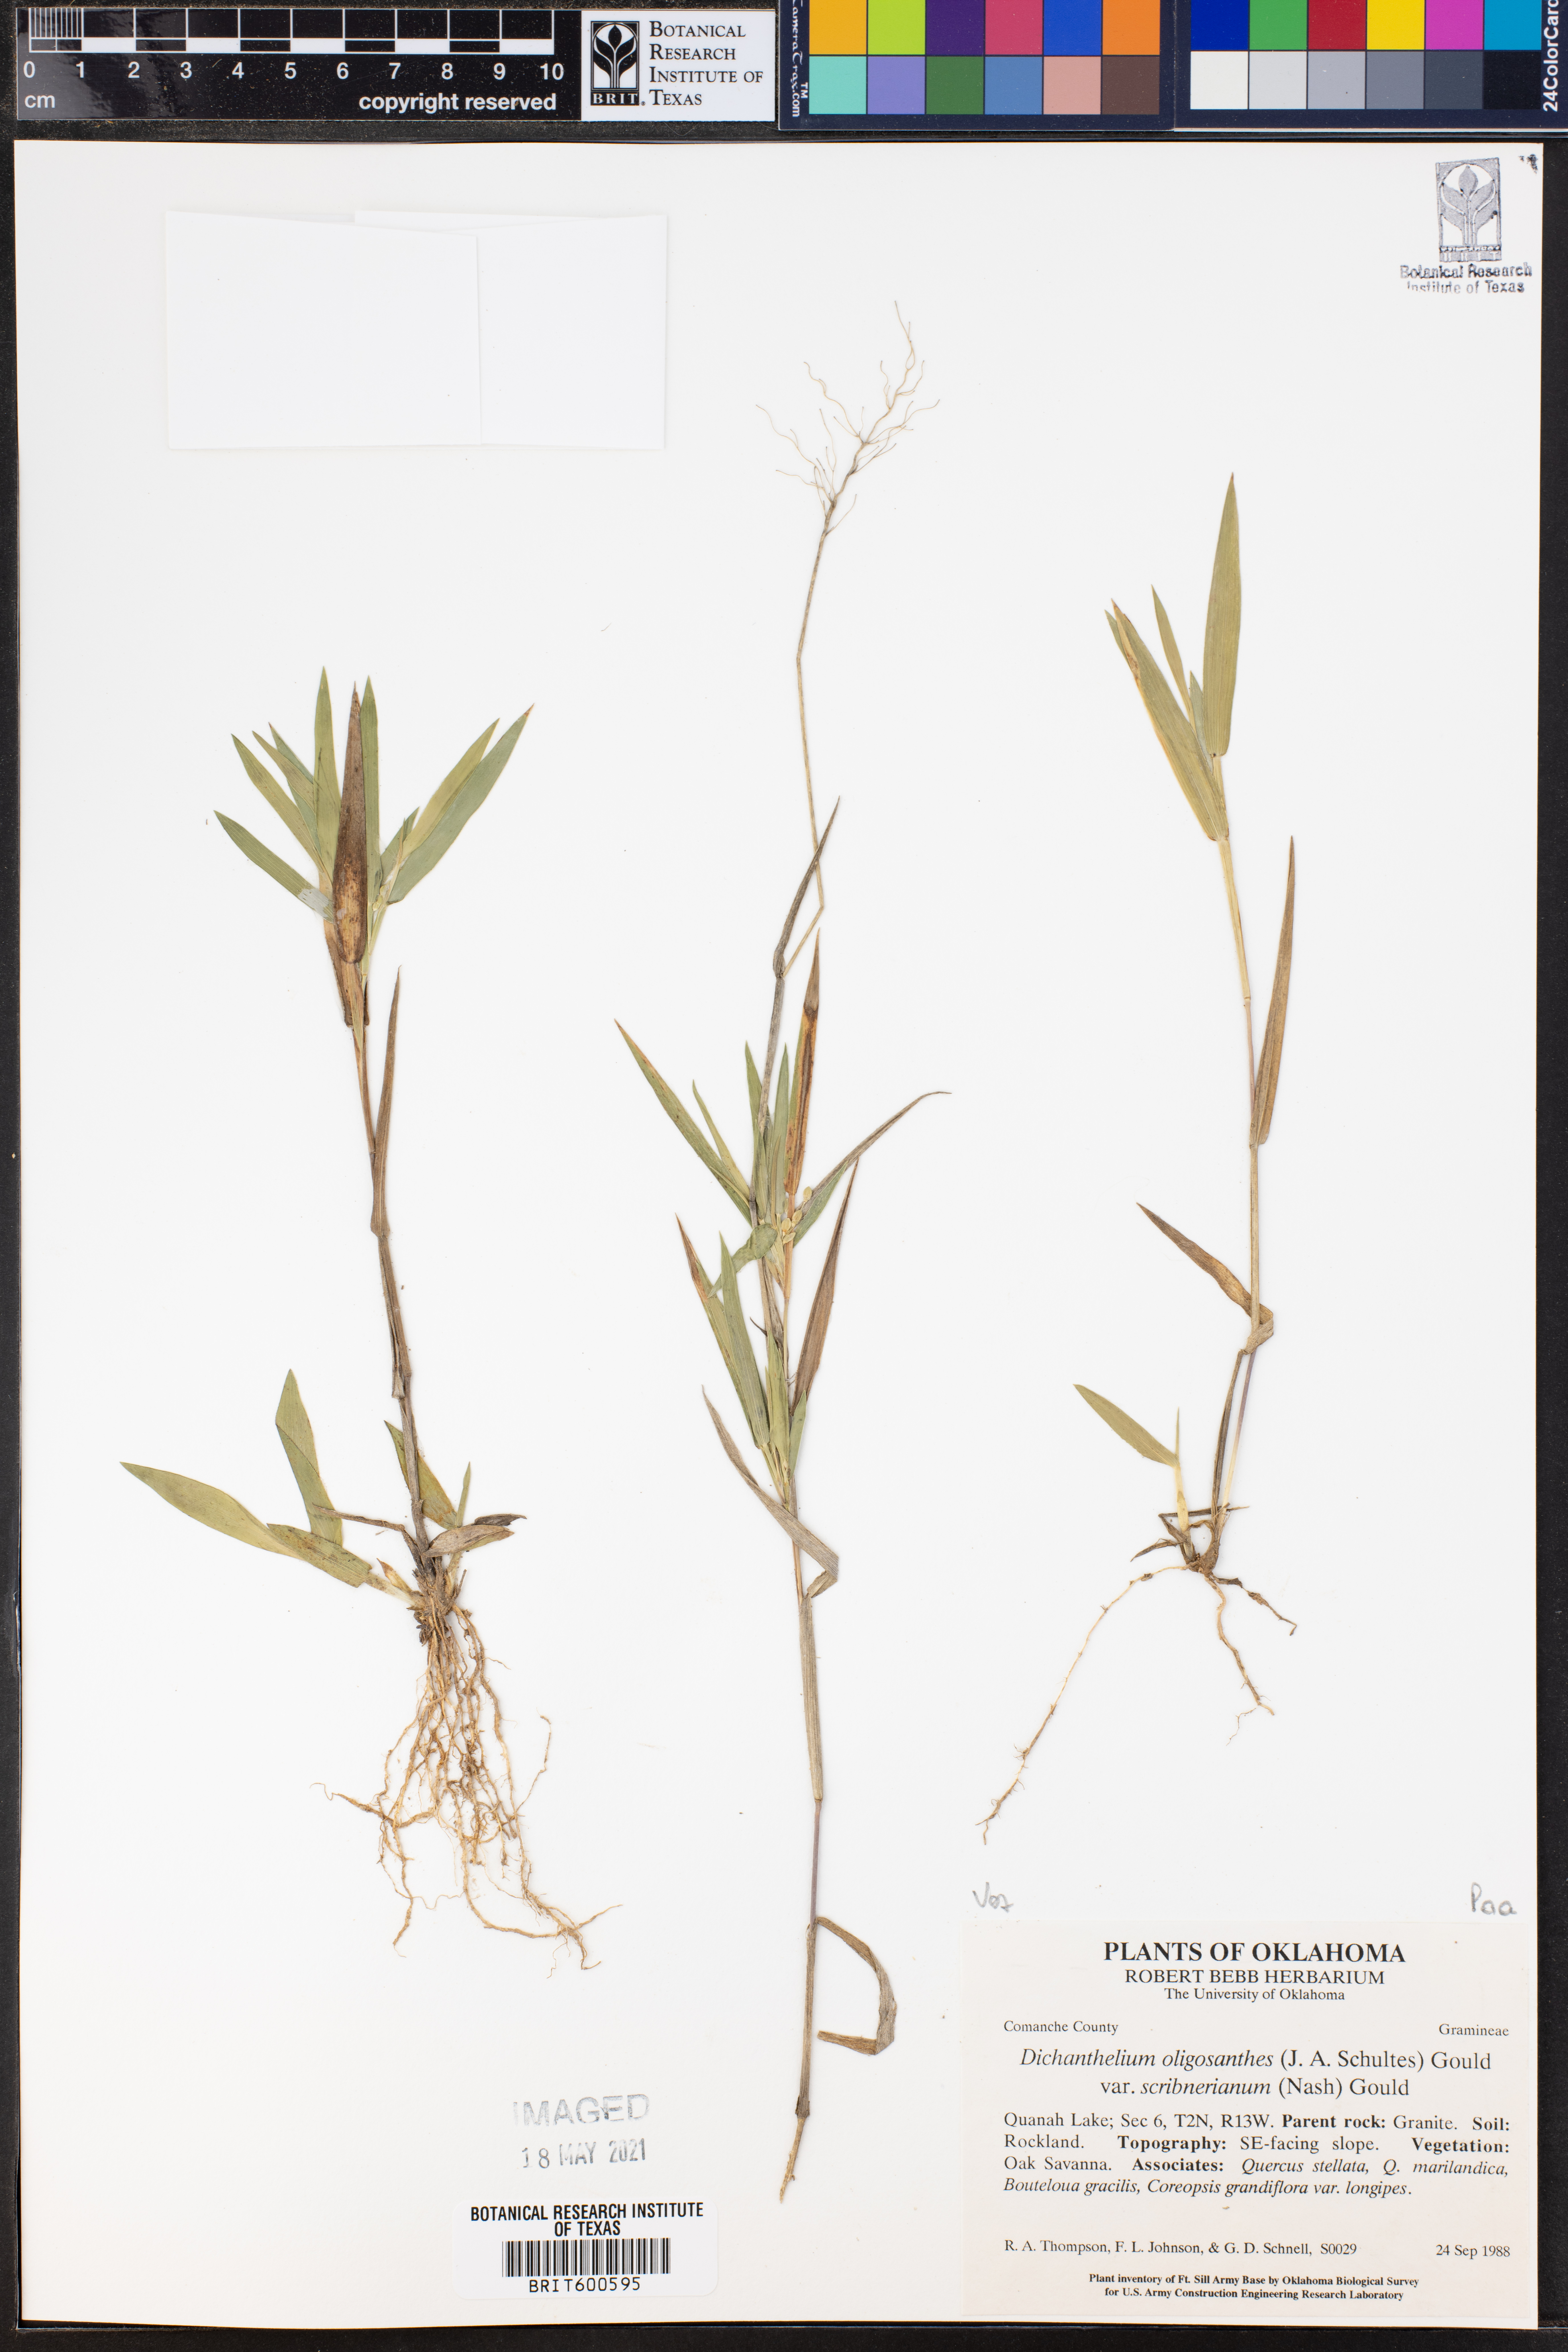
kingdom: Plantae
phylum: Tracheophyta
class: Liliopsida
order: Poales
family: Poaceae
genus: Dichanthelium
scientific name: Dichanthelium scribnerianum
